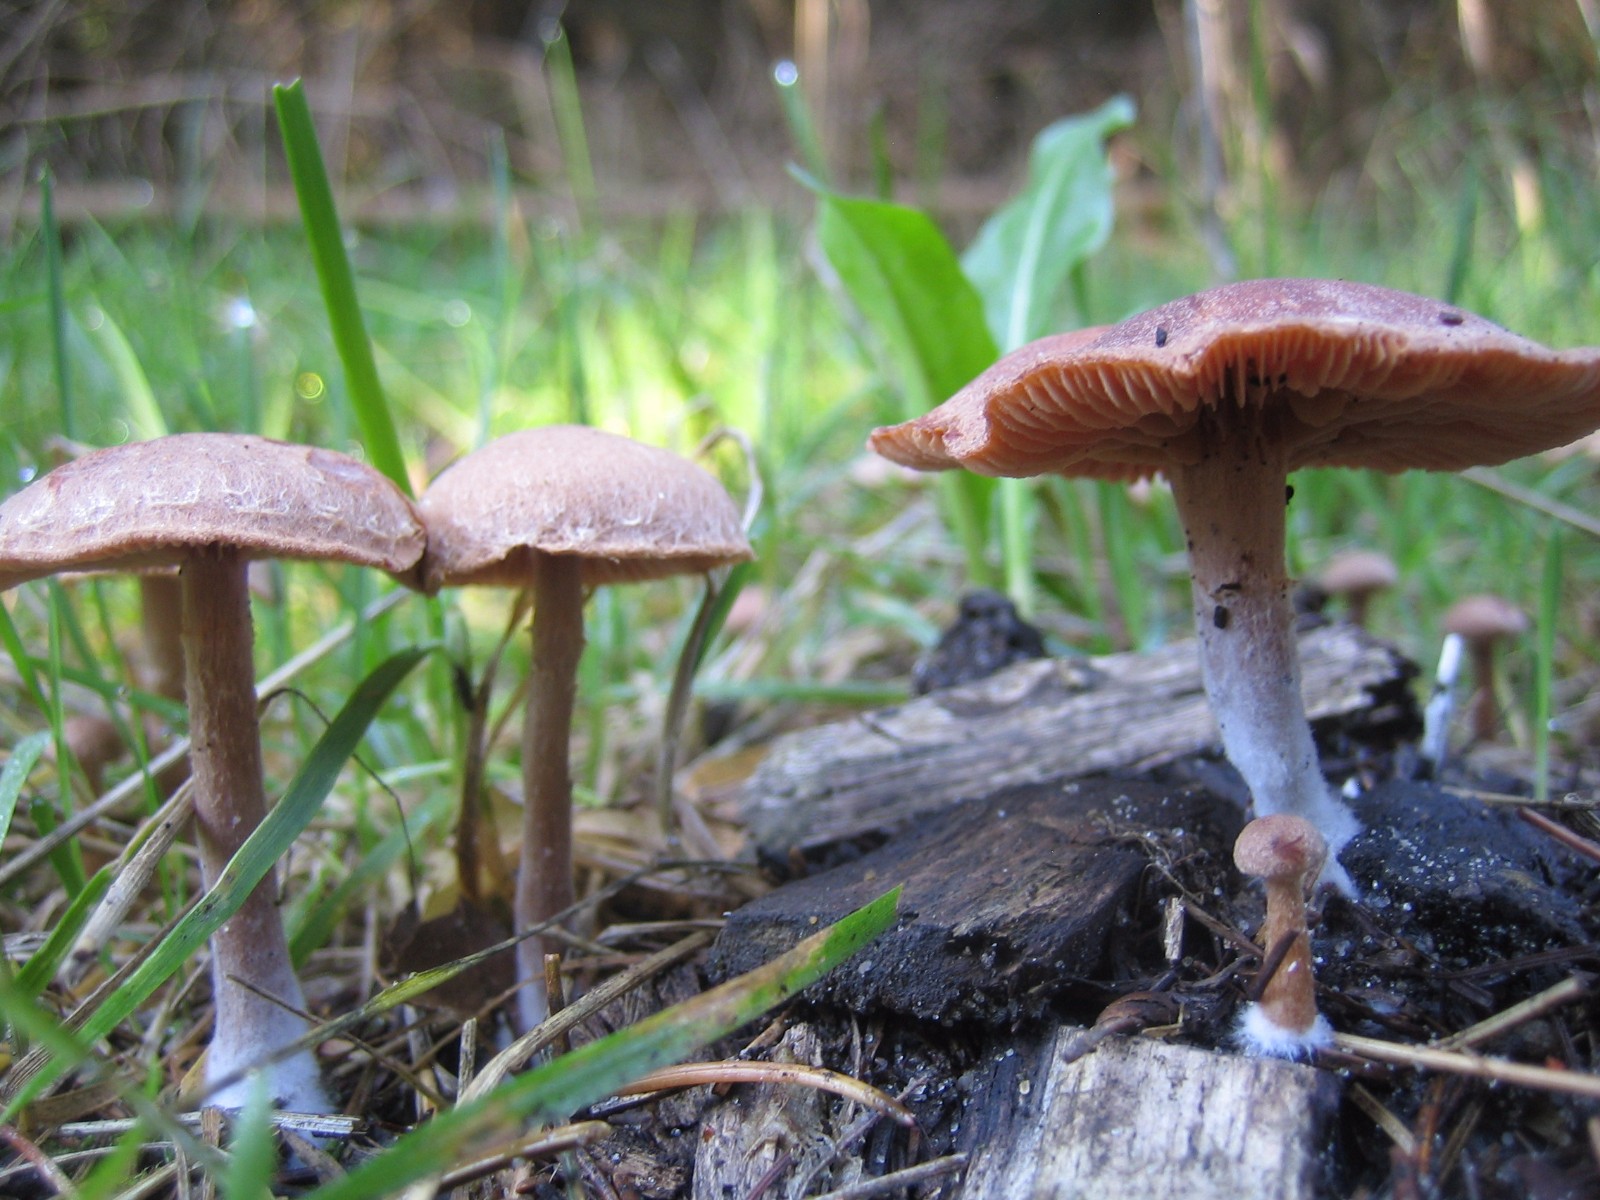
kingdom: Fungi
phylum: Basidiomycota
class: Agaricomycetes
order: Agaricales
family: Tubariaceae
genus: Tubaria
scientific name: Tubaria conspersa
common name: bleg fnughat
